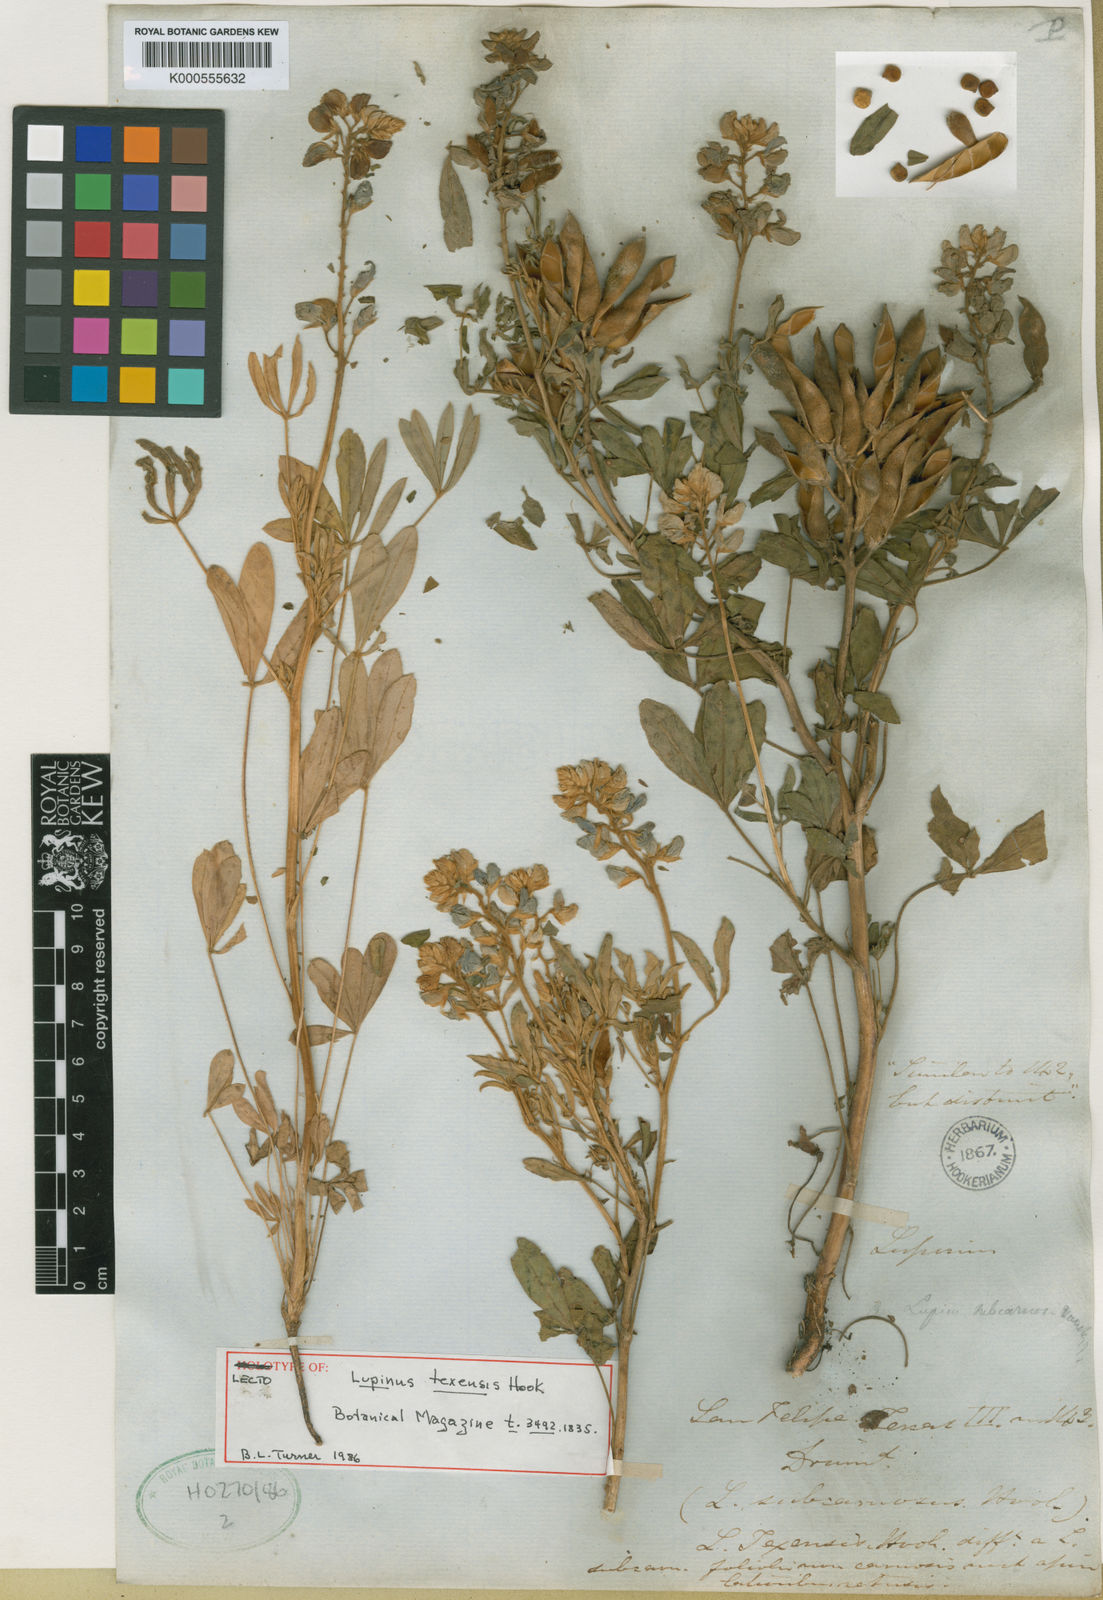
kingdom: Plantae
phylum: Tracheophyta
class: Magnoliopsida
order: Fabales
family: Fabaceae
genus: Lupinus
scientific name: Lupinus texensis
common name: Texas bluebonnet
